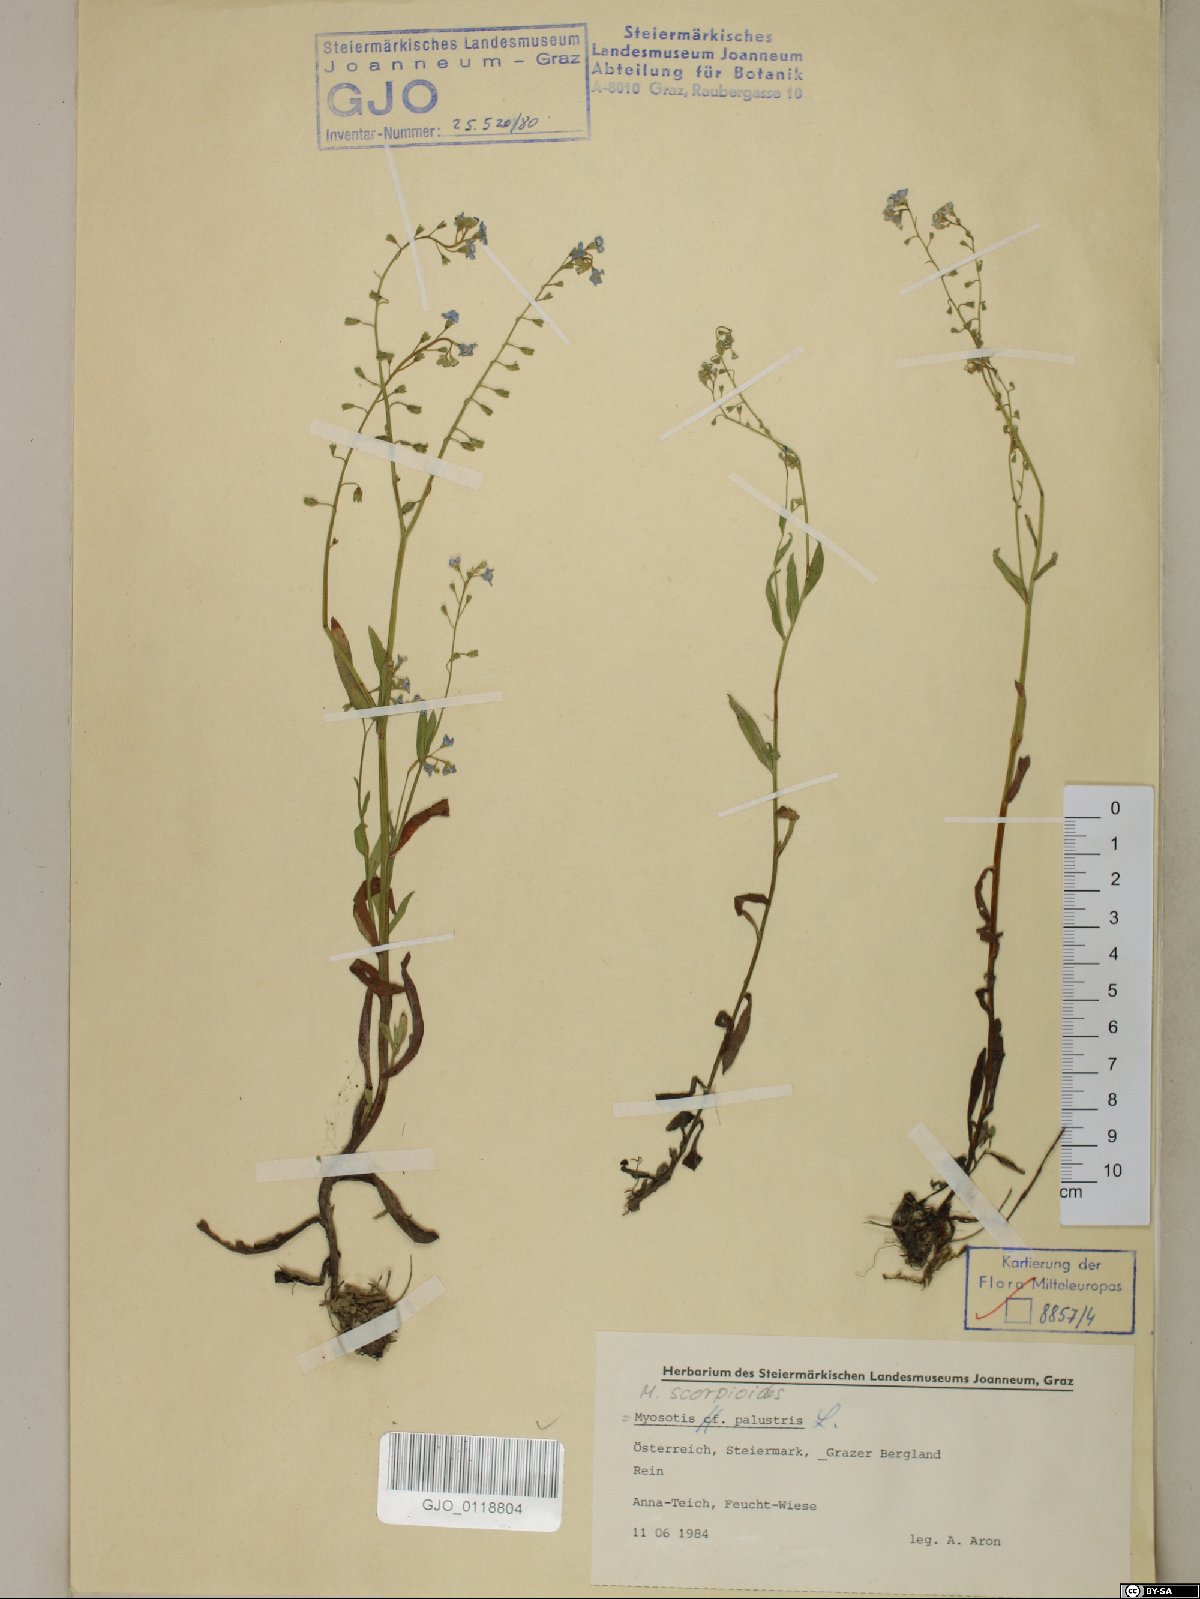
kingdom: Plantae
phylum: Tracheophyta
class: Magnoliopsida
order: Boraginales
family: Boraginaceae
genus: Myosotis
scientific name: Myosotis scorpioides
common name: Water forget-me-not
